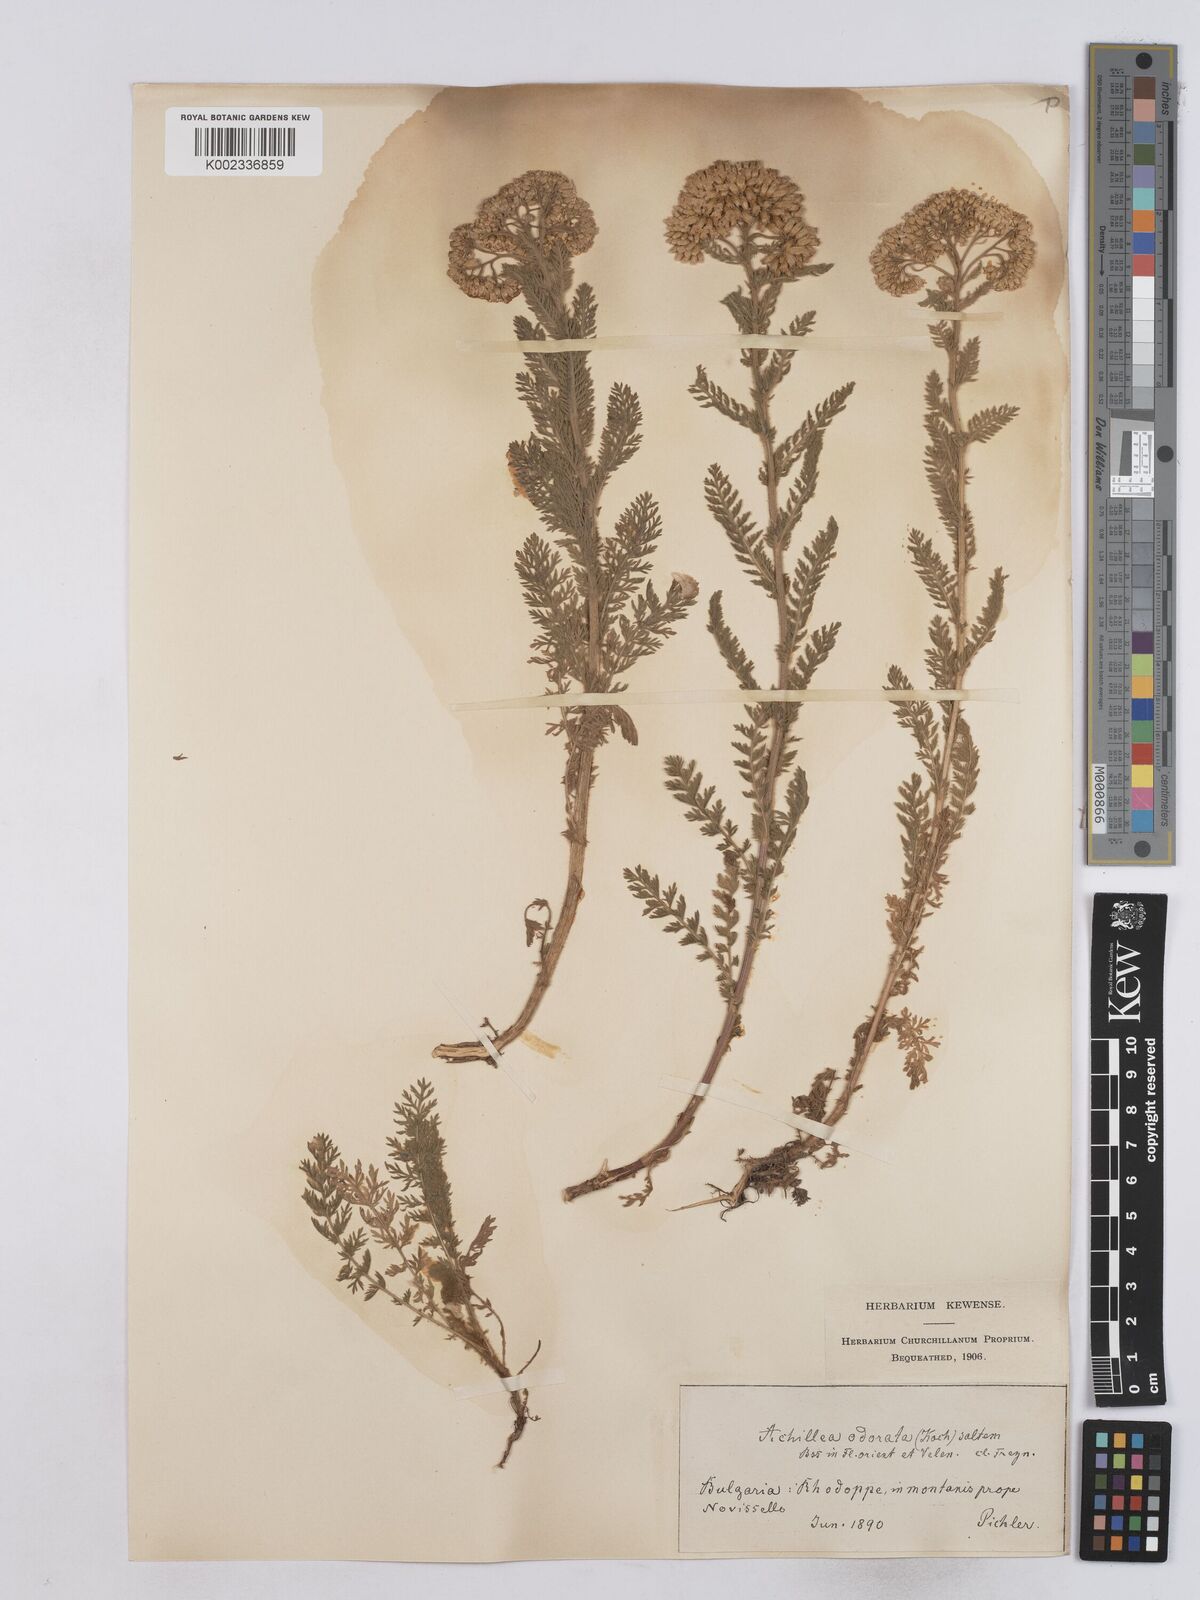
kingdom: Plantae
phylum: Tracheophyta
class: Magnoliopsida
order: Asterales
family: Asteraceae
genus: Achillea
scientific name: Achillea odorata
